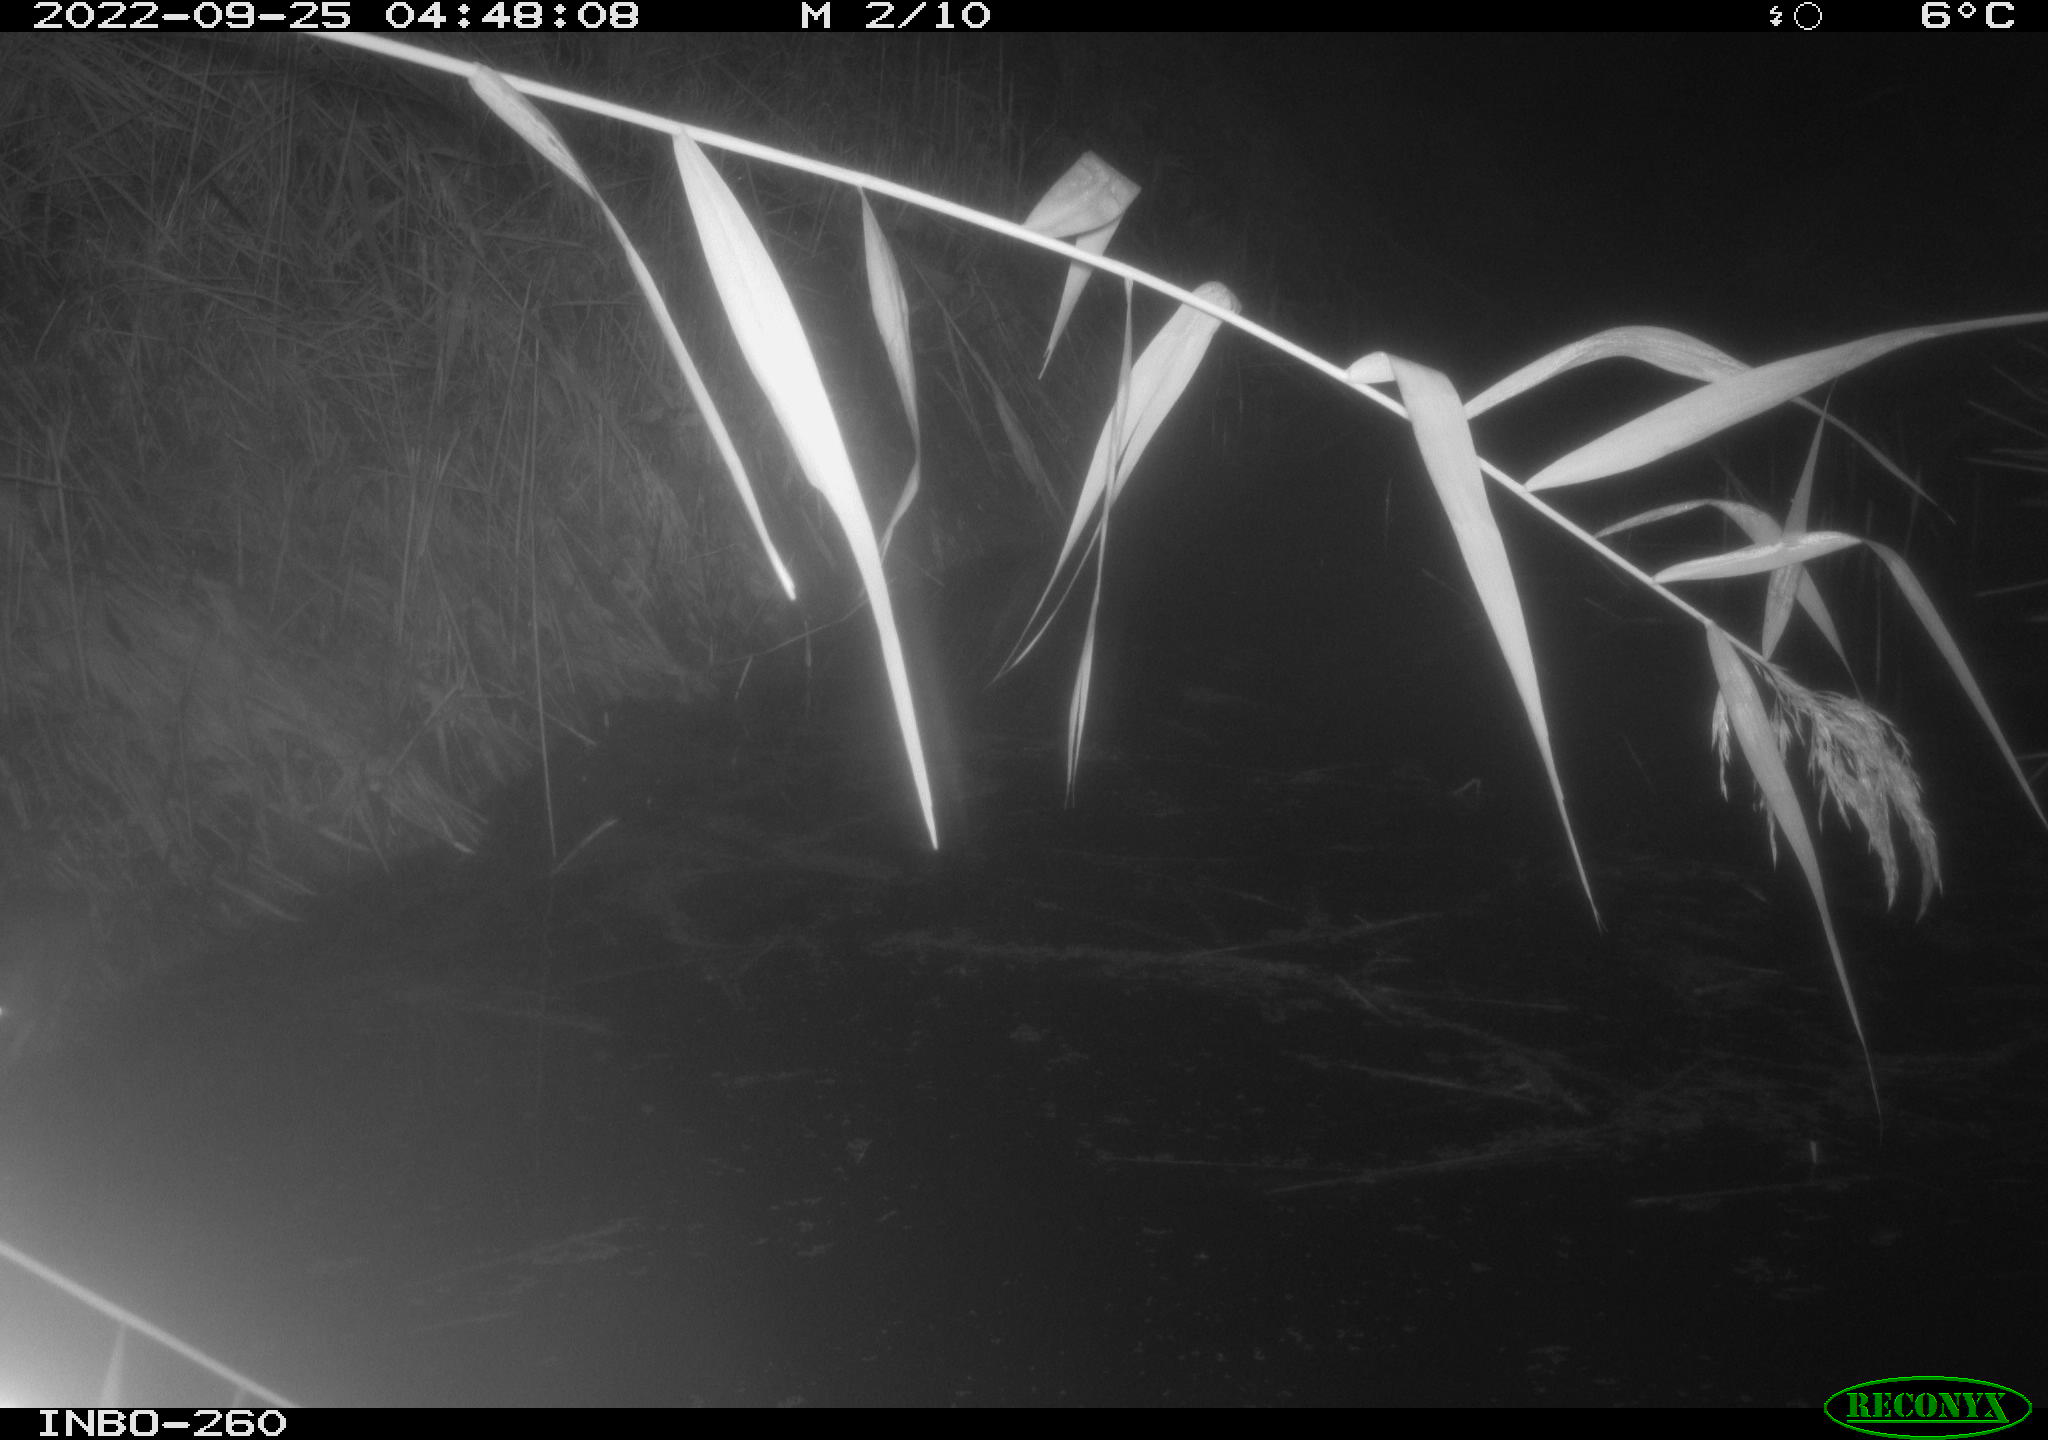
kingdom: Animalia
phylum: Chordata
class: Mammalia
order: Rodentia
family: Muridae
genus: Rattus
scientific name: Rattus norvegicus
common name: Brown rat
